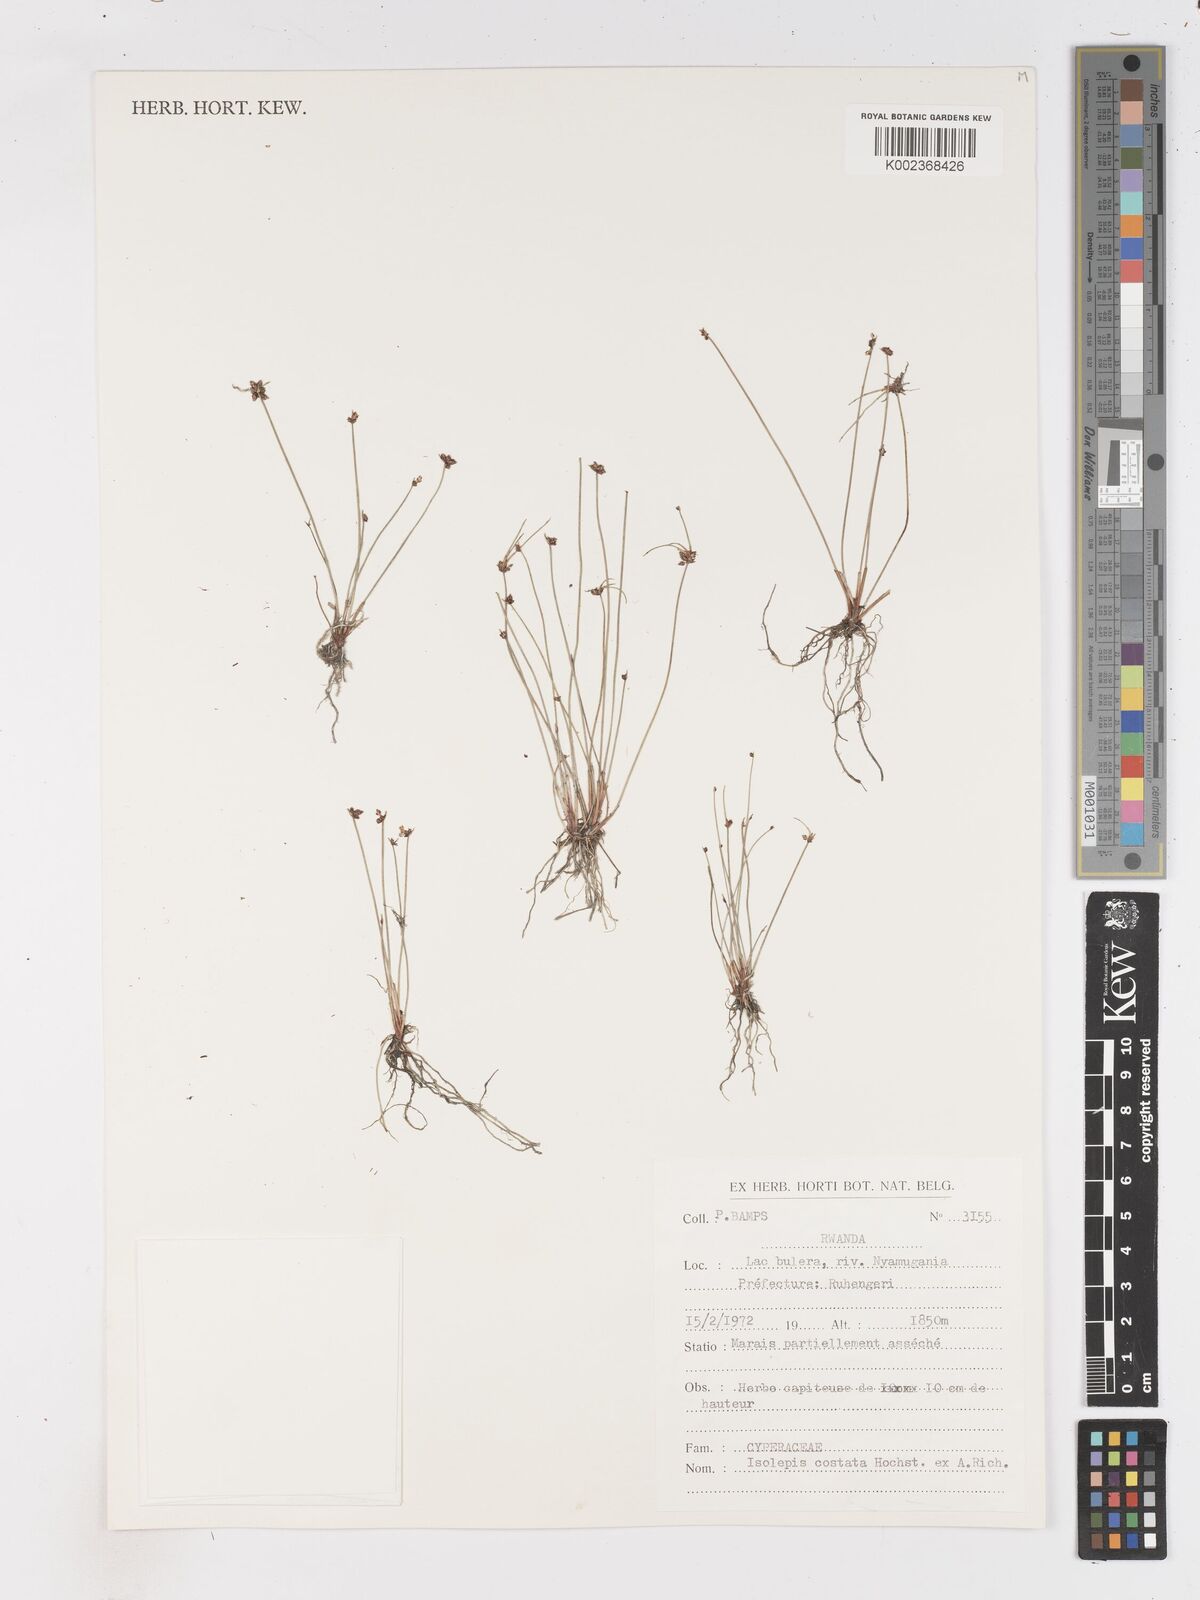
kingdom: Plantae
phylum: Tracheophyta
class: Liliopsida
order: Poales
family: Cyperaceae
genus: Isolepis
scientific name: Isolepis costata
